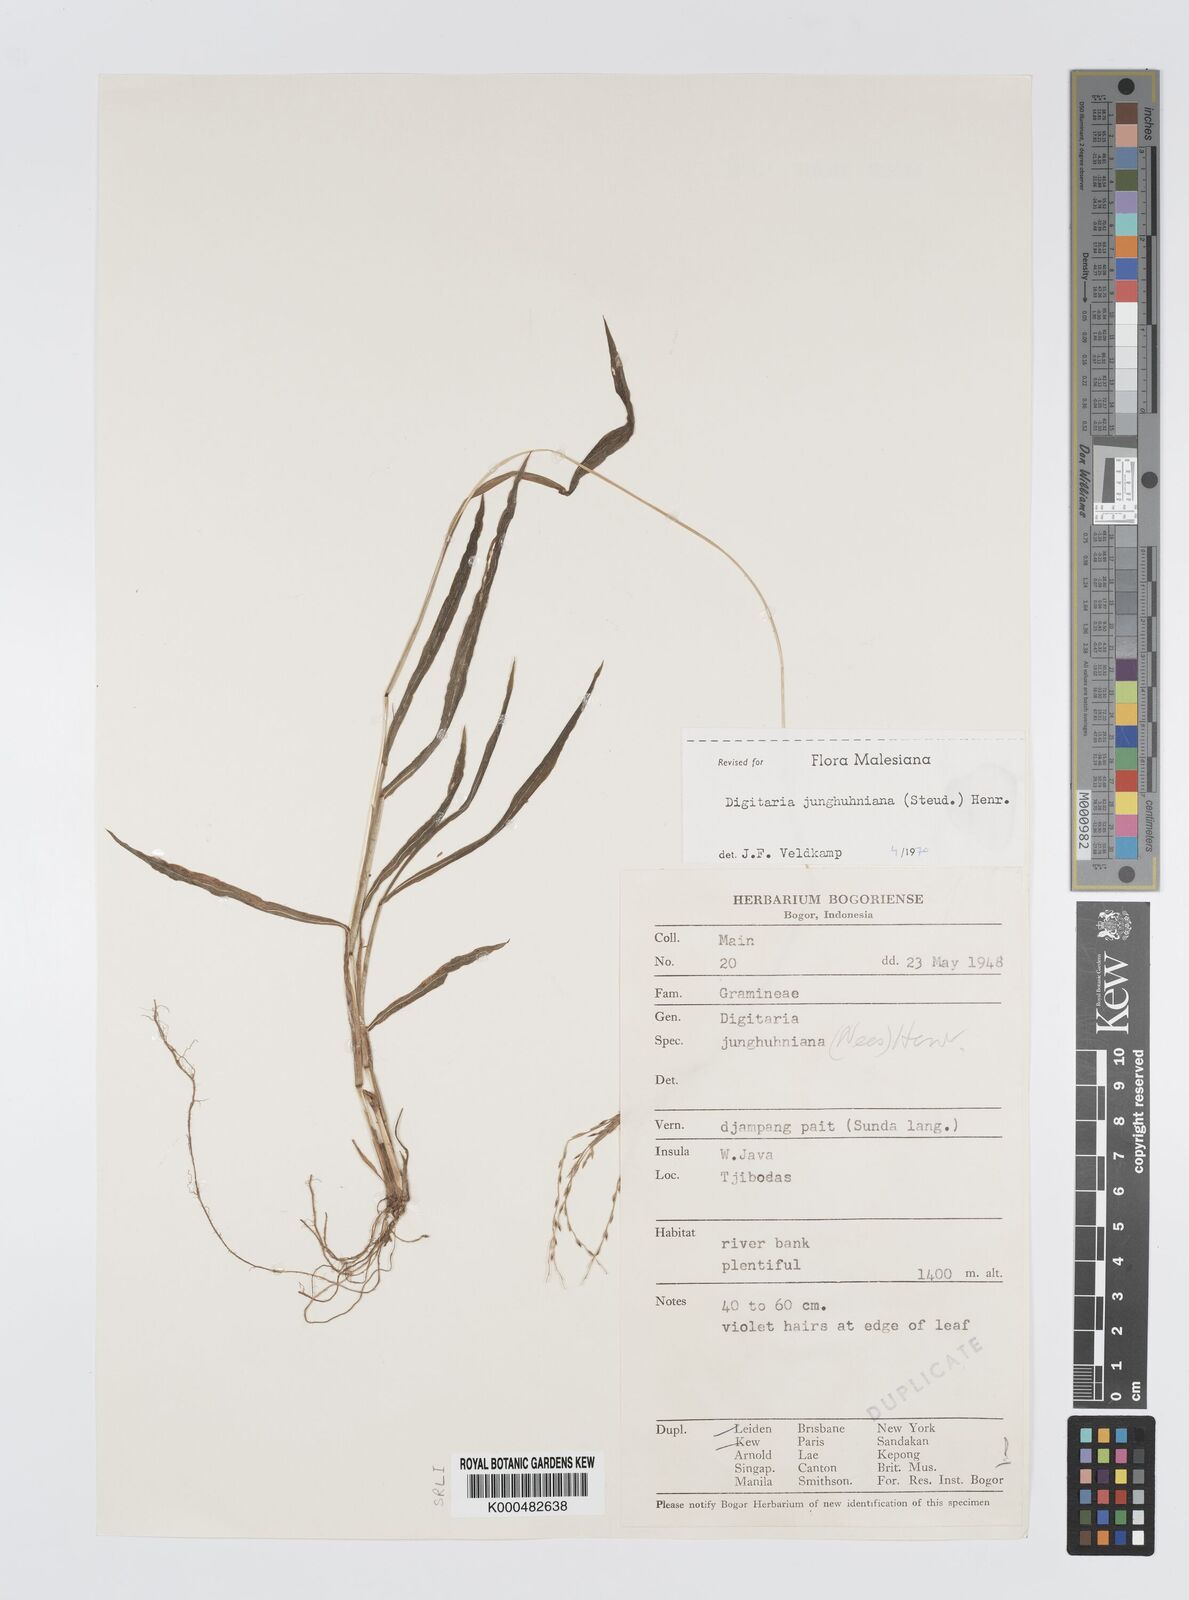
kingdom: Plantae
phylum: Tracheophyta
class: Liliopsida
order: Poales
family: Poaceae
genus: Digitaria
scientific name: Digitaria junghuhniana
